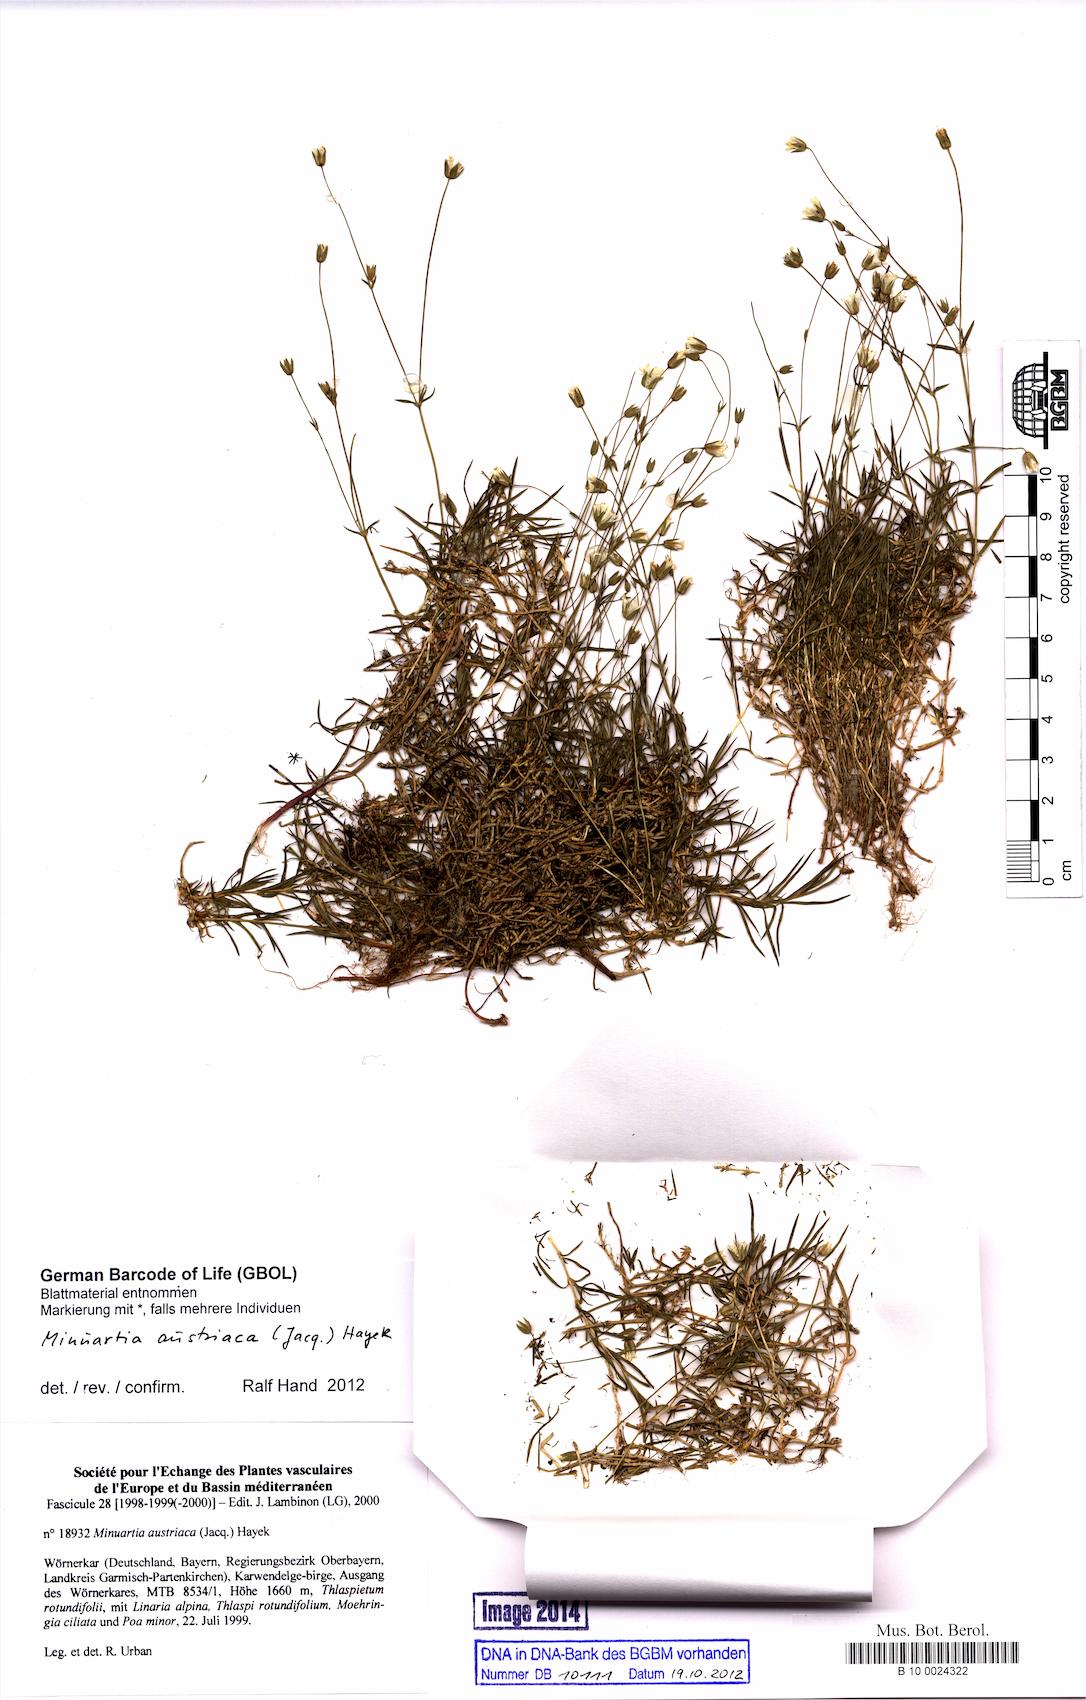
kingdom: Plantae
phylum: Tracheophyta
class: Magnoliopsida
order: Caryophyllales
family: Caryophyllaceae
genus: Sabulina
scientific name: Sabulina austriaca
